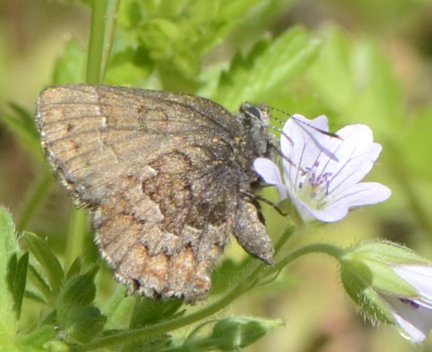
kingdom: Animalia
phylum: Arthropoda
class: Insecta
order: Lepidoptera
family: Lycaenidae
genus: Incisalia
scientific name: Incisalia niphon
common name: Eastern Pine Elfin
